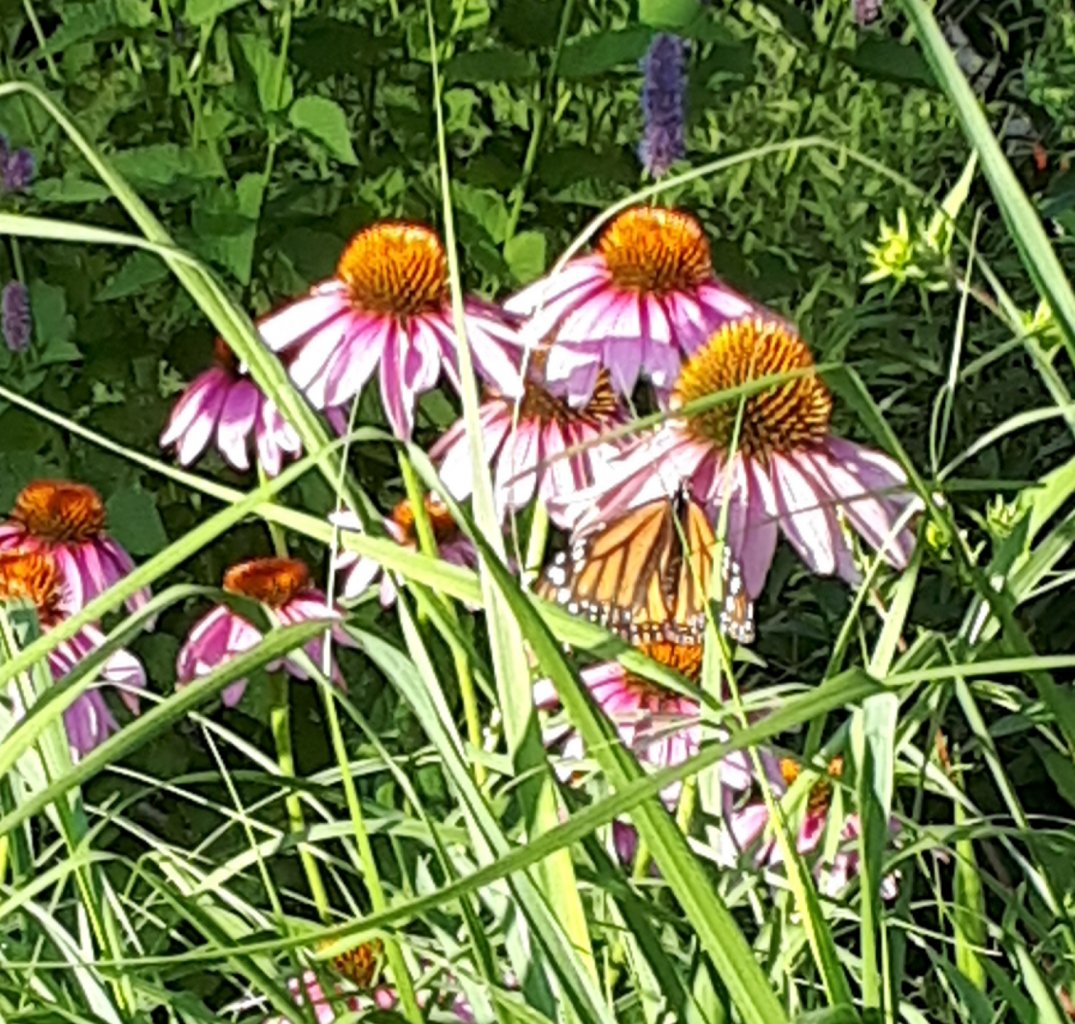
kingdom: Animalia
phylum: Arthropoda
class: Insecta
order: Lepidoptera
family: Nymphalidae
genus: Danaus
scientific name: Danaus plexippus
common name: Monarch
